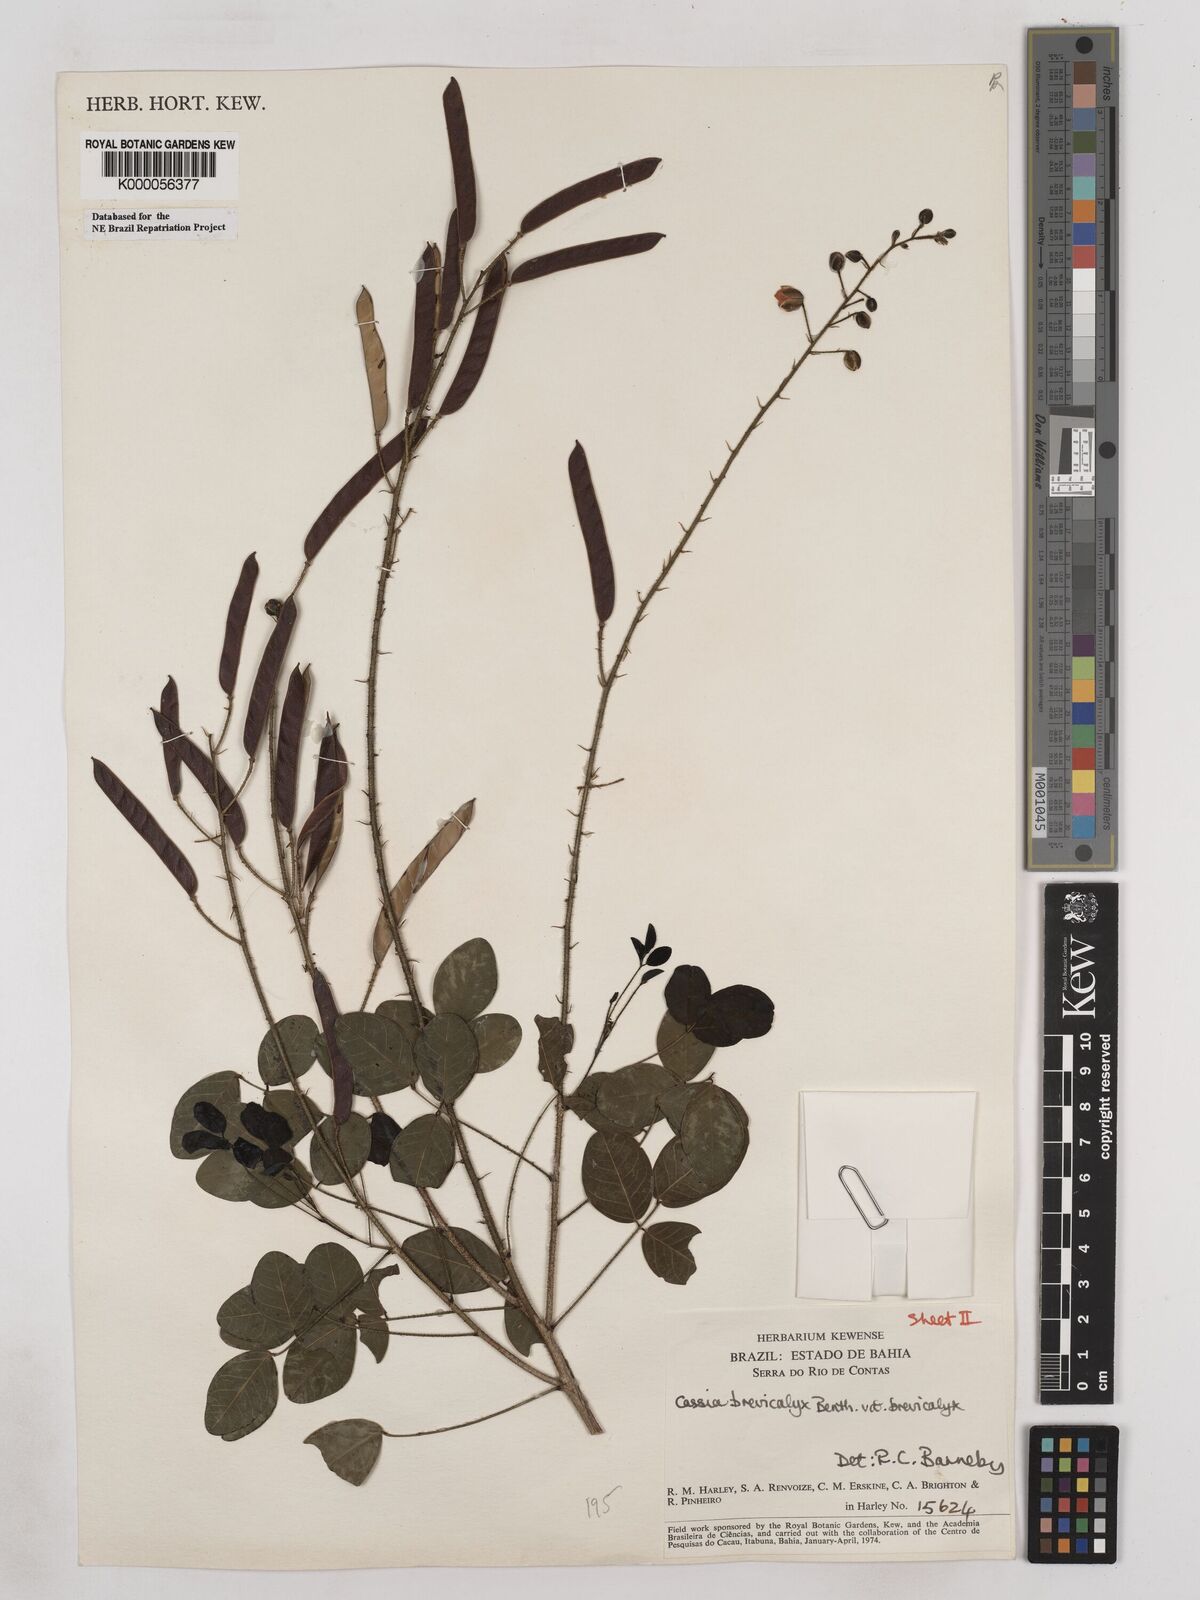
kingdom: Plantae
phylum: Tracheophyta
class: Magnoliopsida
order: Fabales
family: Fabaceae
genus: Chamaecrista
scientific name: Chamaecrista brevicalyx
